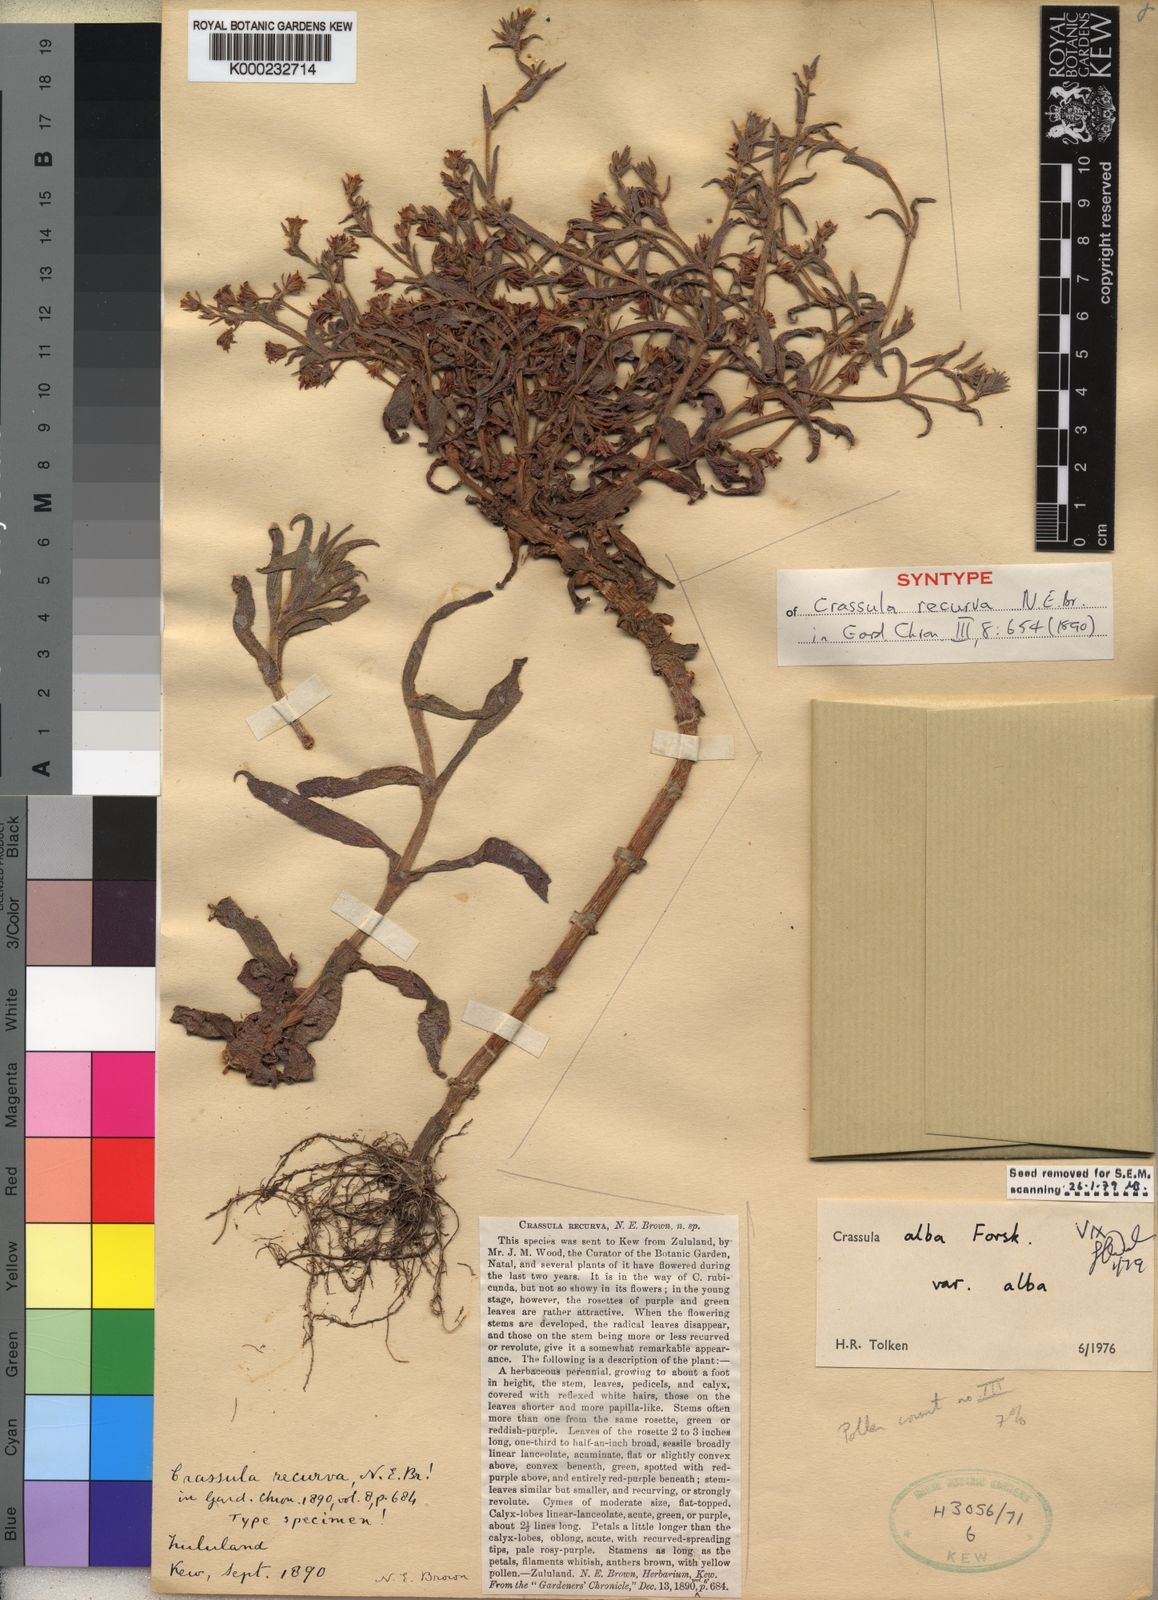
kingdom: Plantae
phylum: Tracheophyta
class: Magnoliopsida
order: Saxifragales
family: Crassulaceae
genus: Crassula
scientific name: Crassula alba
